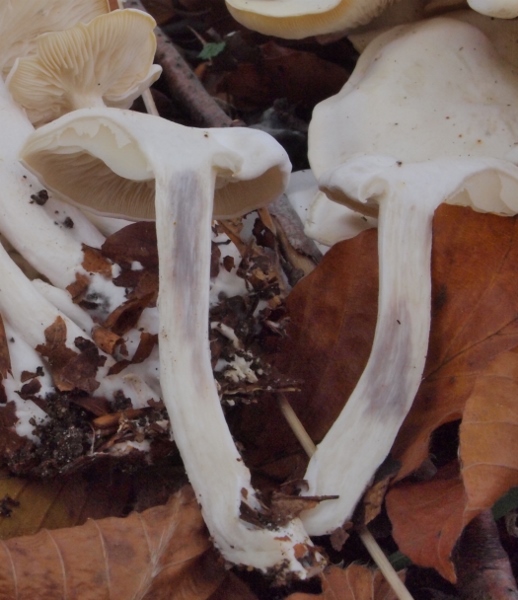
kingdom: Fungi
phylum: Basidiomycota
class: Agaricomycetes
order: Agaricales
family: Tricholomataceae
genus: Leucocybe
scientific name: Leucocybe connata
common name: knippe-tragthat
